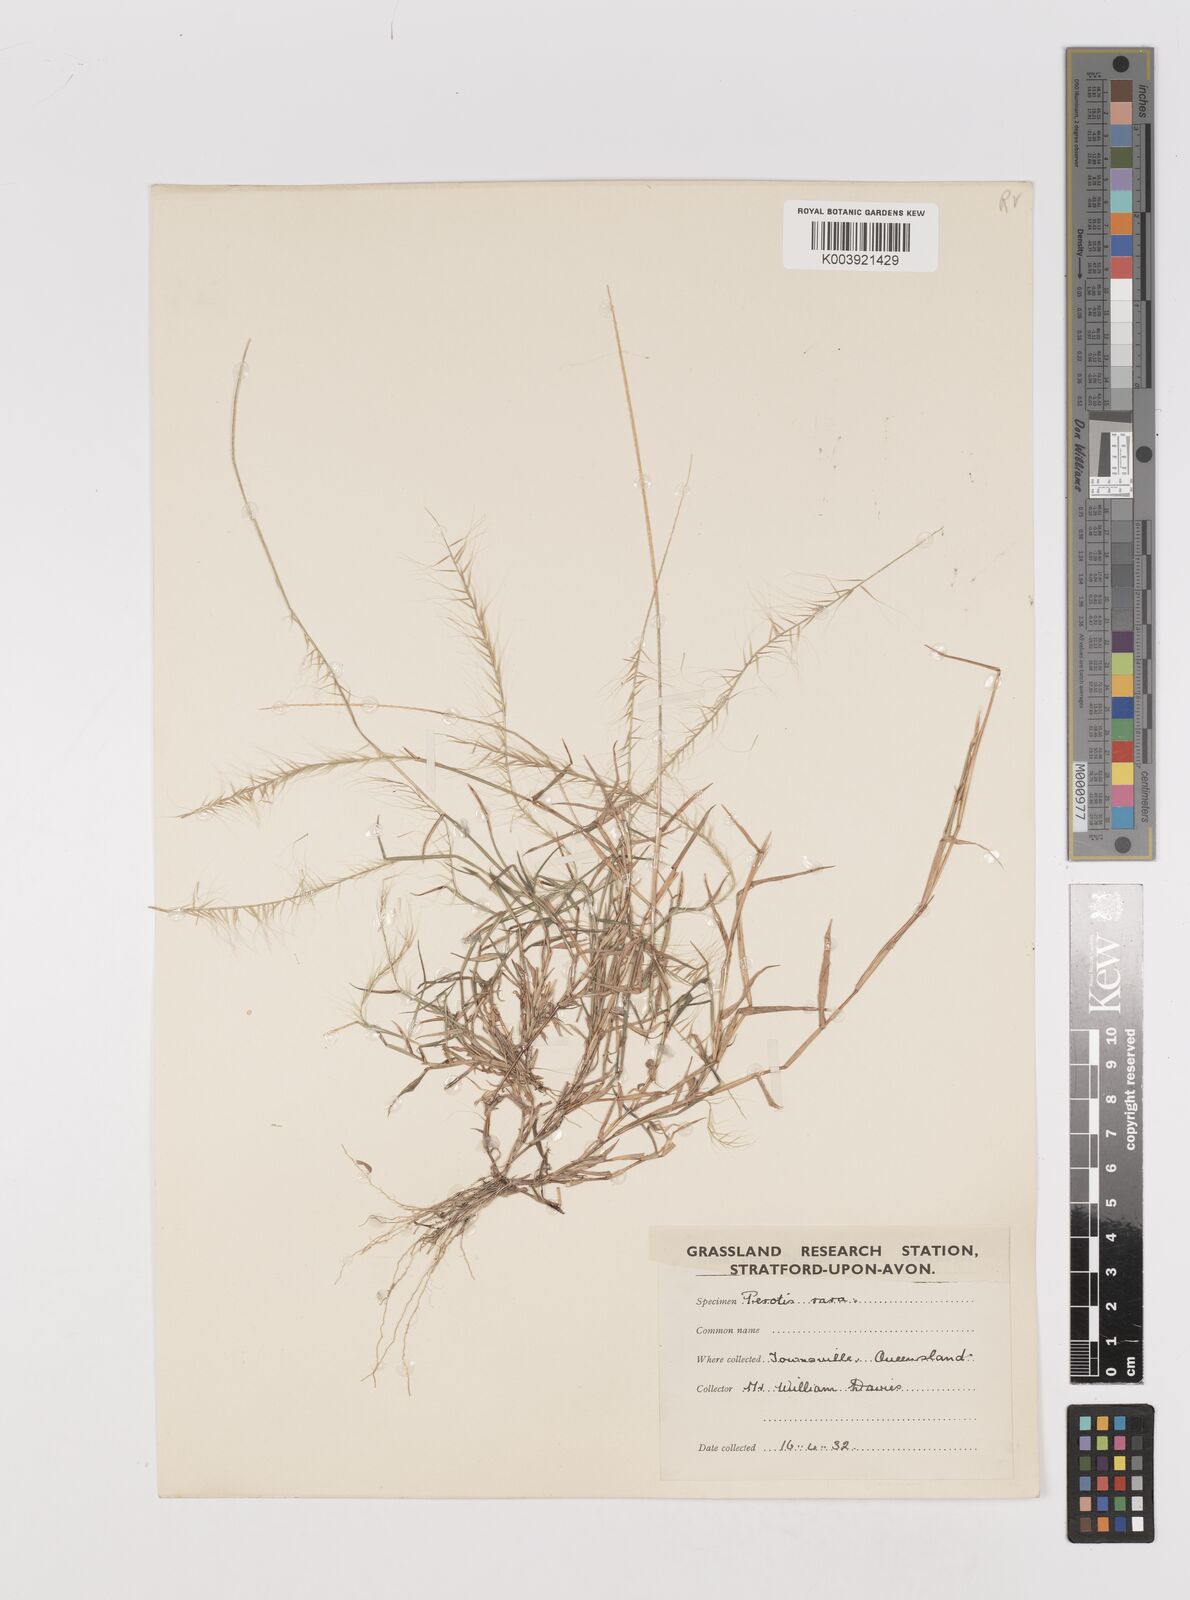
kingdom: Plantae
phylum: Tracheophyta
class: Liliopsida
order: Poales
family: Poaceae
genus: Perotis
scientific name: Perotis rara
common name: Comet grass
